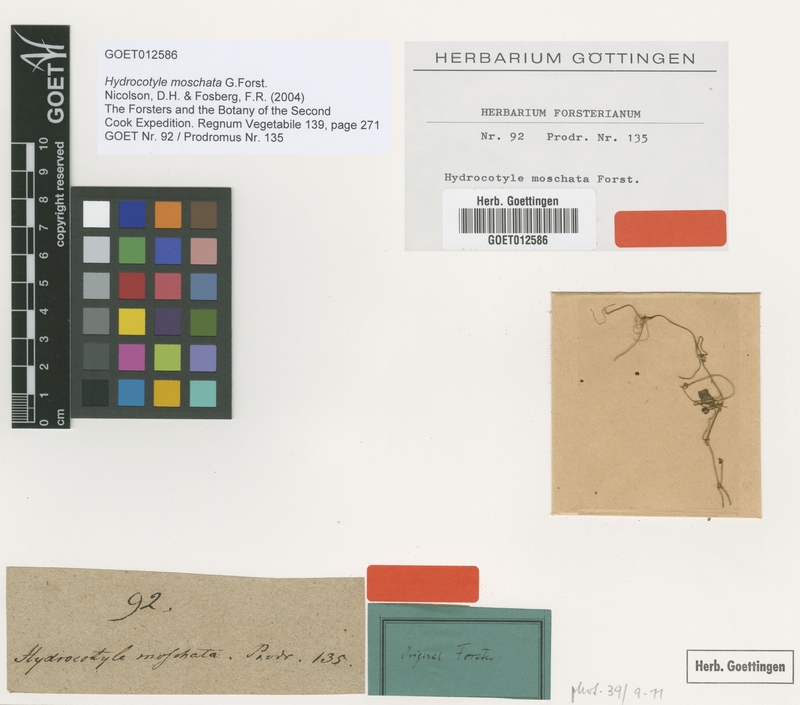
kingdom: Plantae
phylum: Tracheophyta
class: Magnoliopsida
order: Apiales
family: Araliaceae
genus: Hydrocotyle
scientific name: Hydrocotyle moschata
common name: Hairy pennywort
